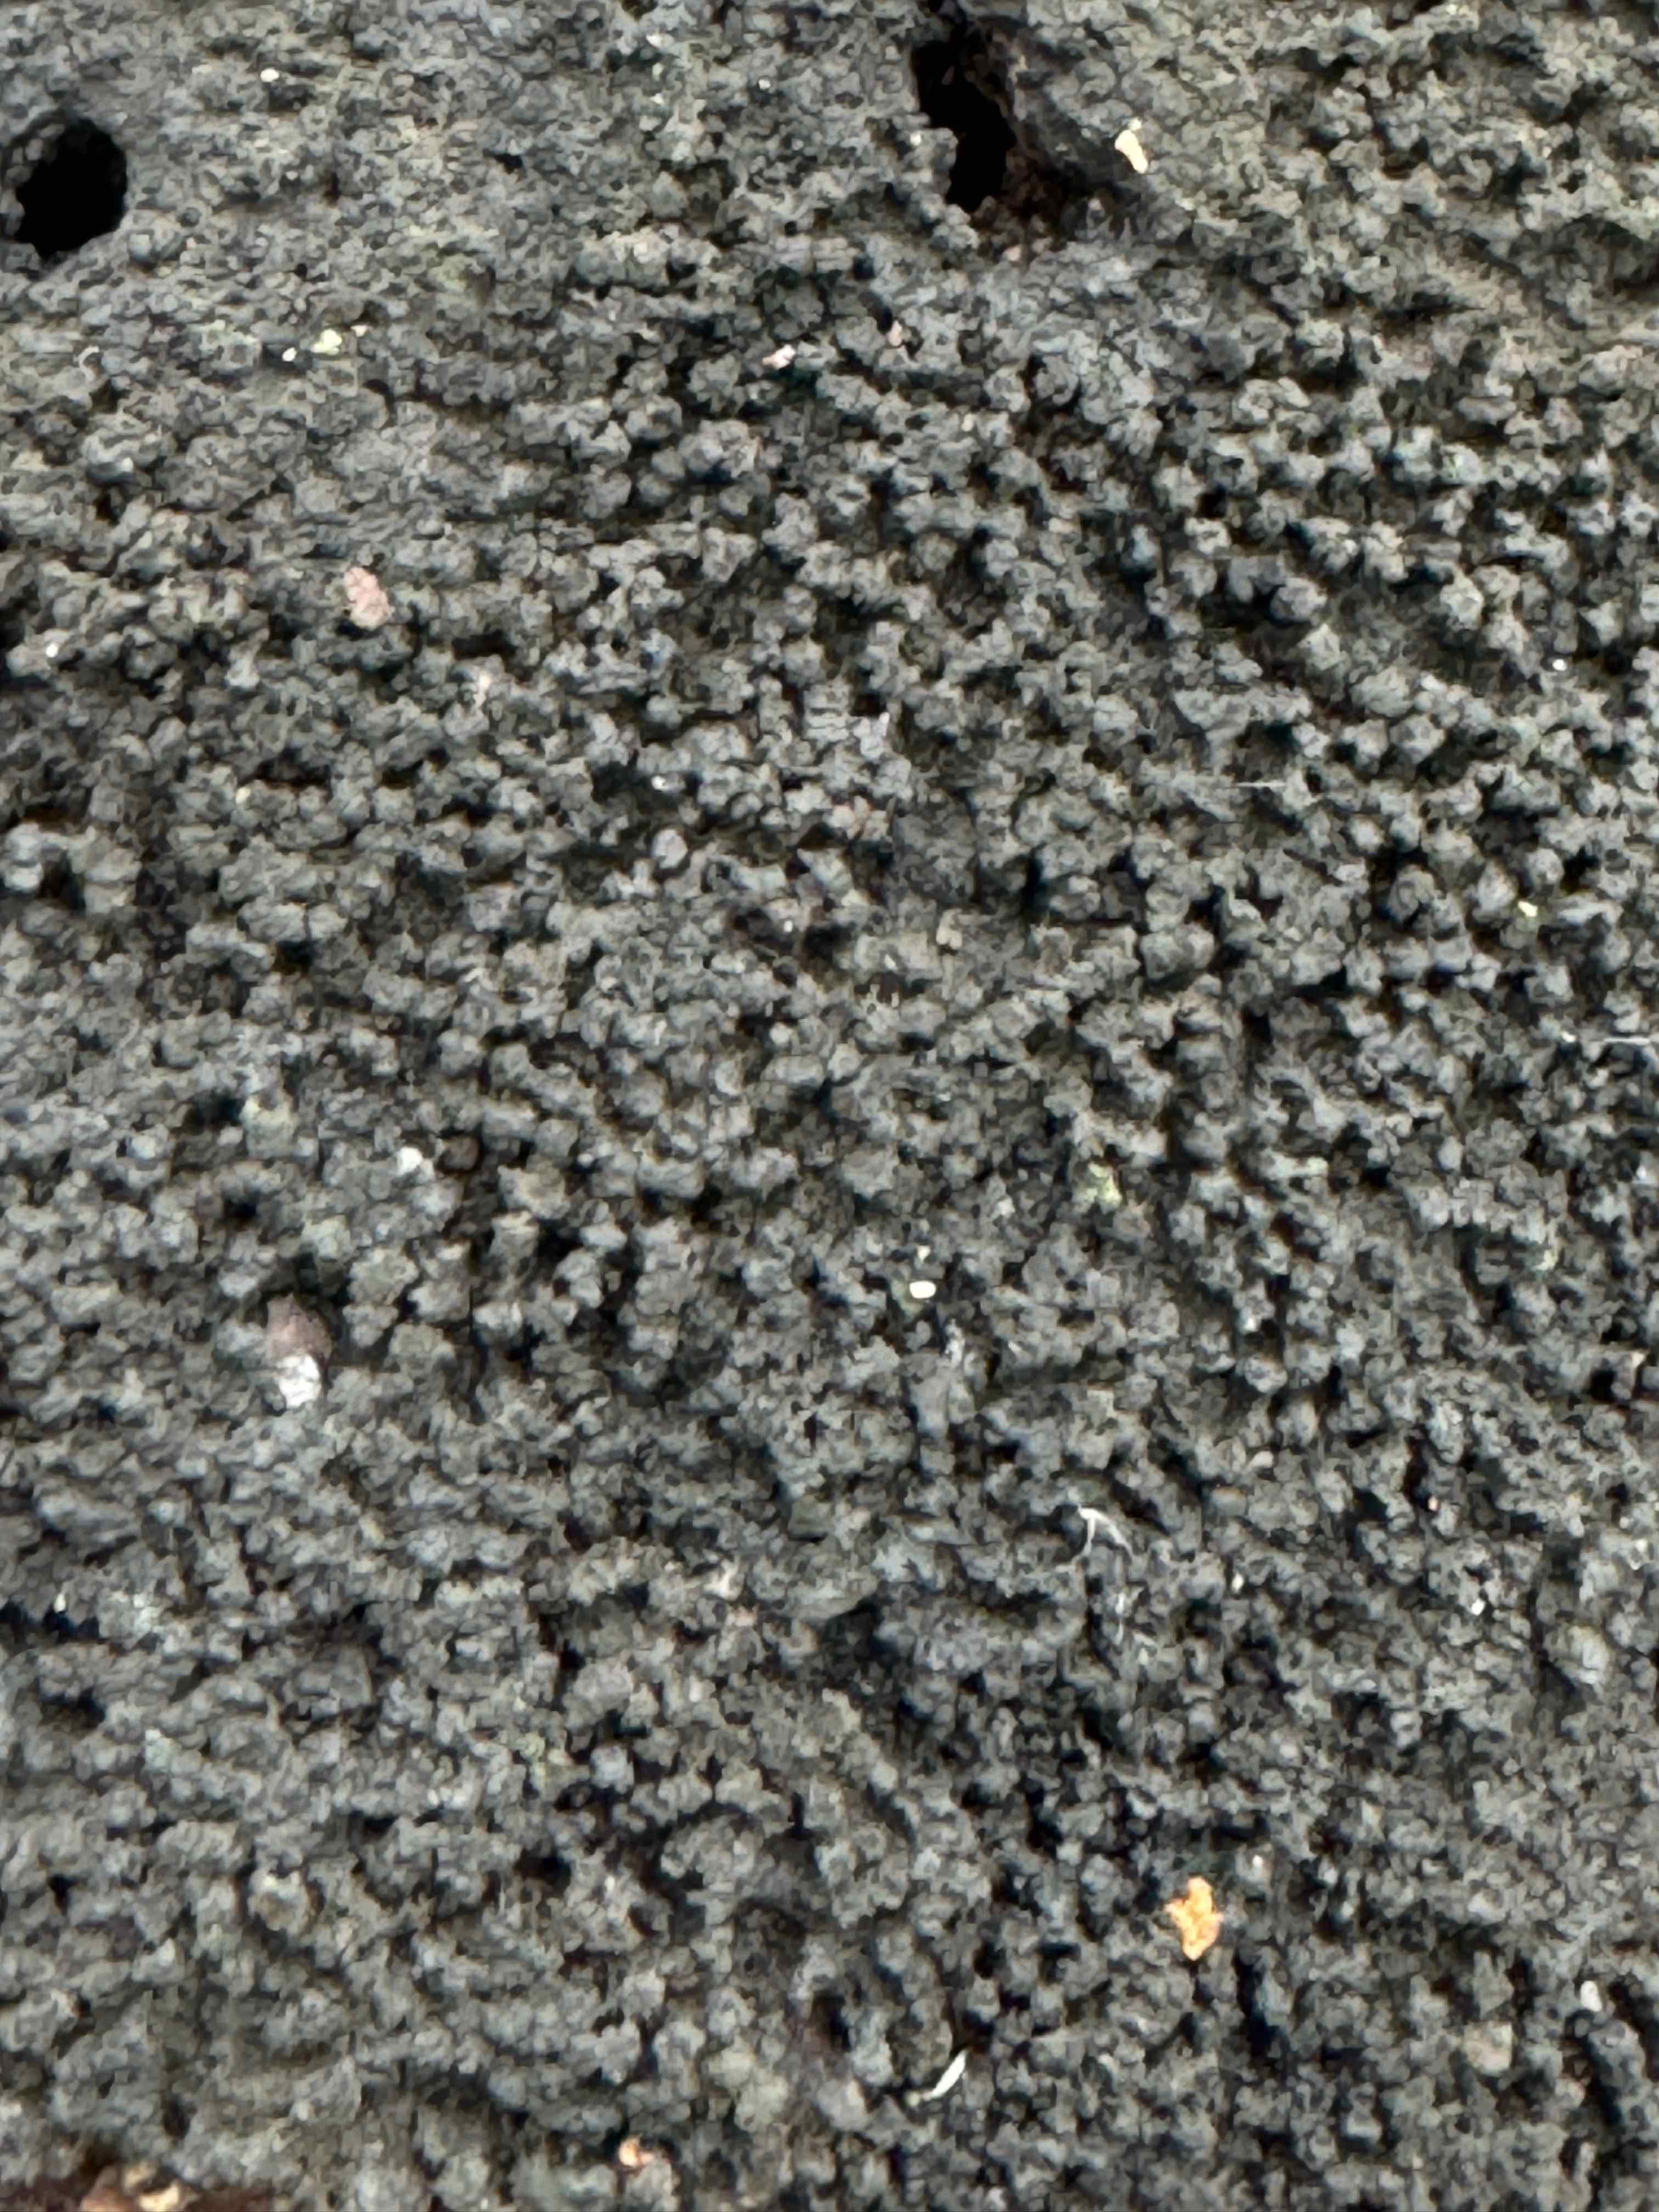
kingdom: Fungi
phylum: Ascomycota
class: Sordariomycetes
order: Xylariales
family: Diatrypaceae
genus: Eutypa
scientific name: Eutypa spinosa
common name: grov kulskorpe
